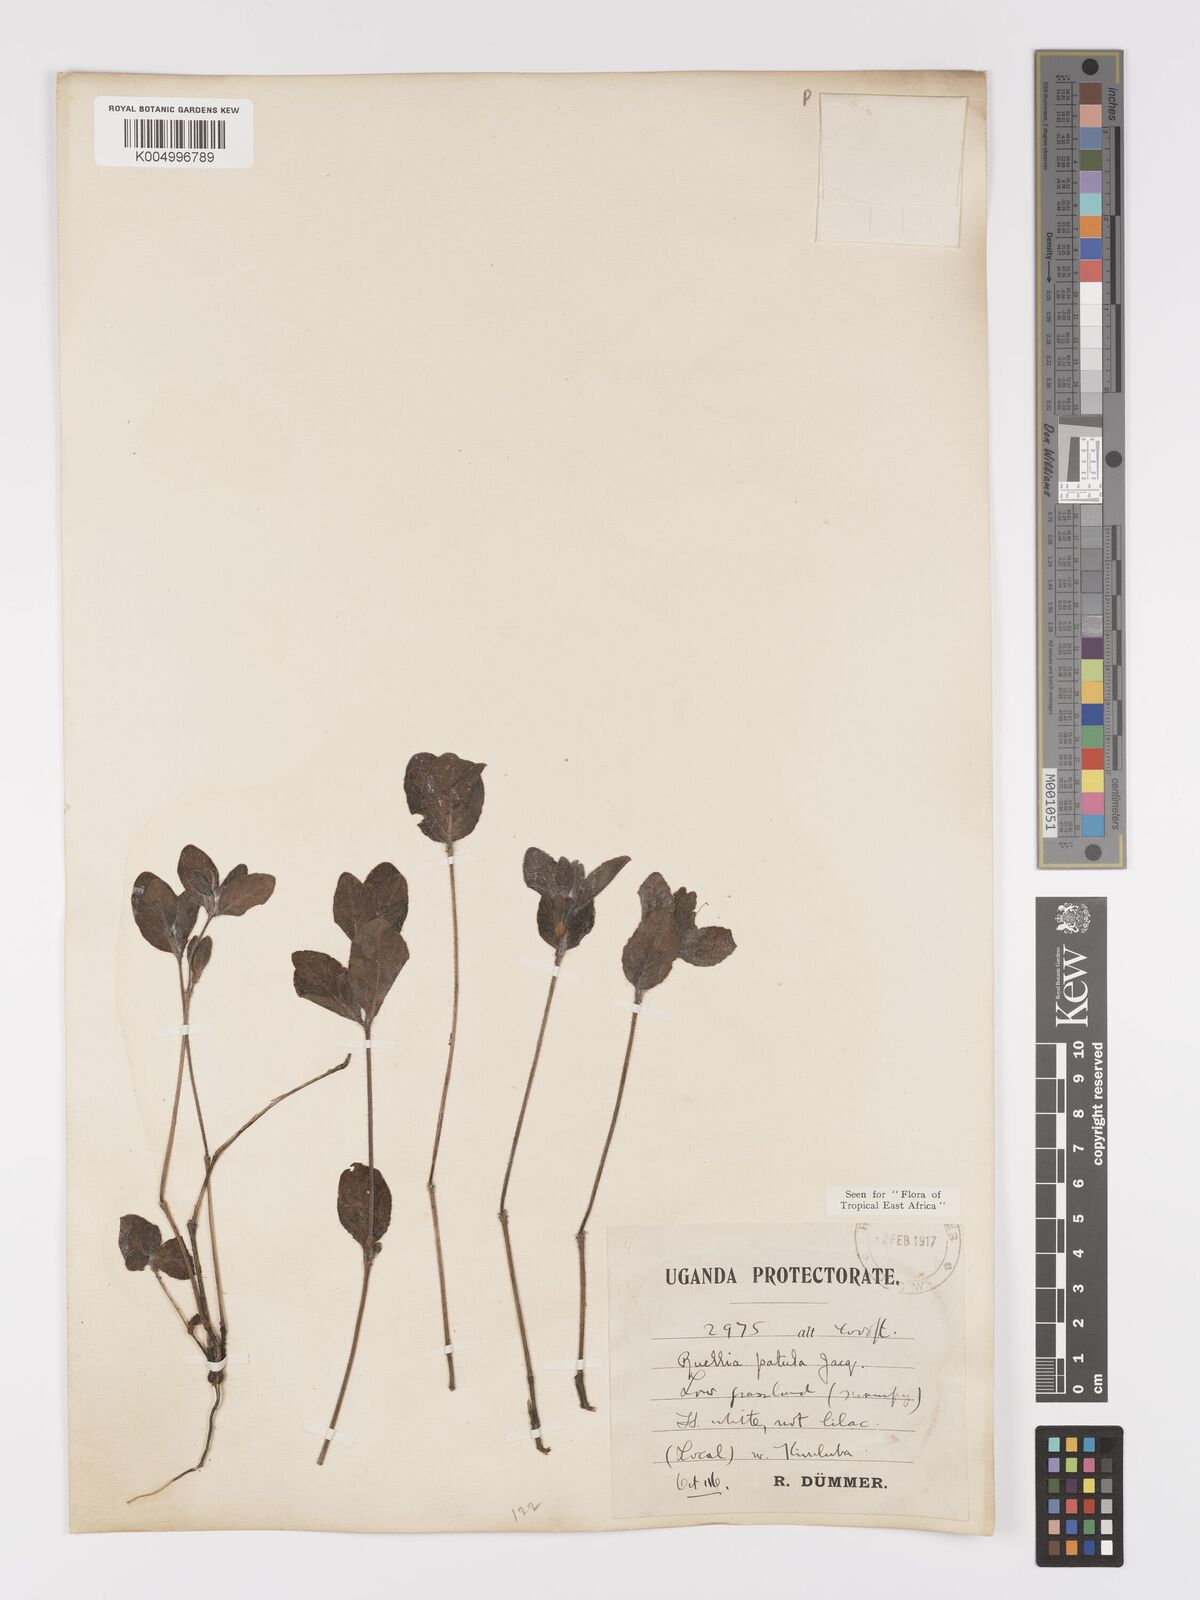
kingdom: Plantae
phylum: Tracheophyta
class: Magnoliopsida
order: Lamiales
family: Acanthaceae
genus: Ruellia
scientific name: Ruellia patula
